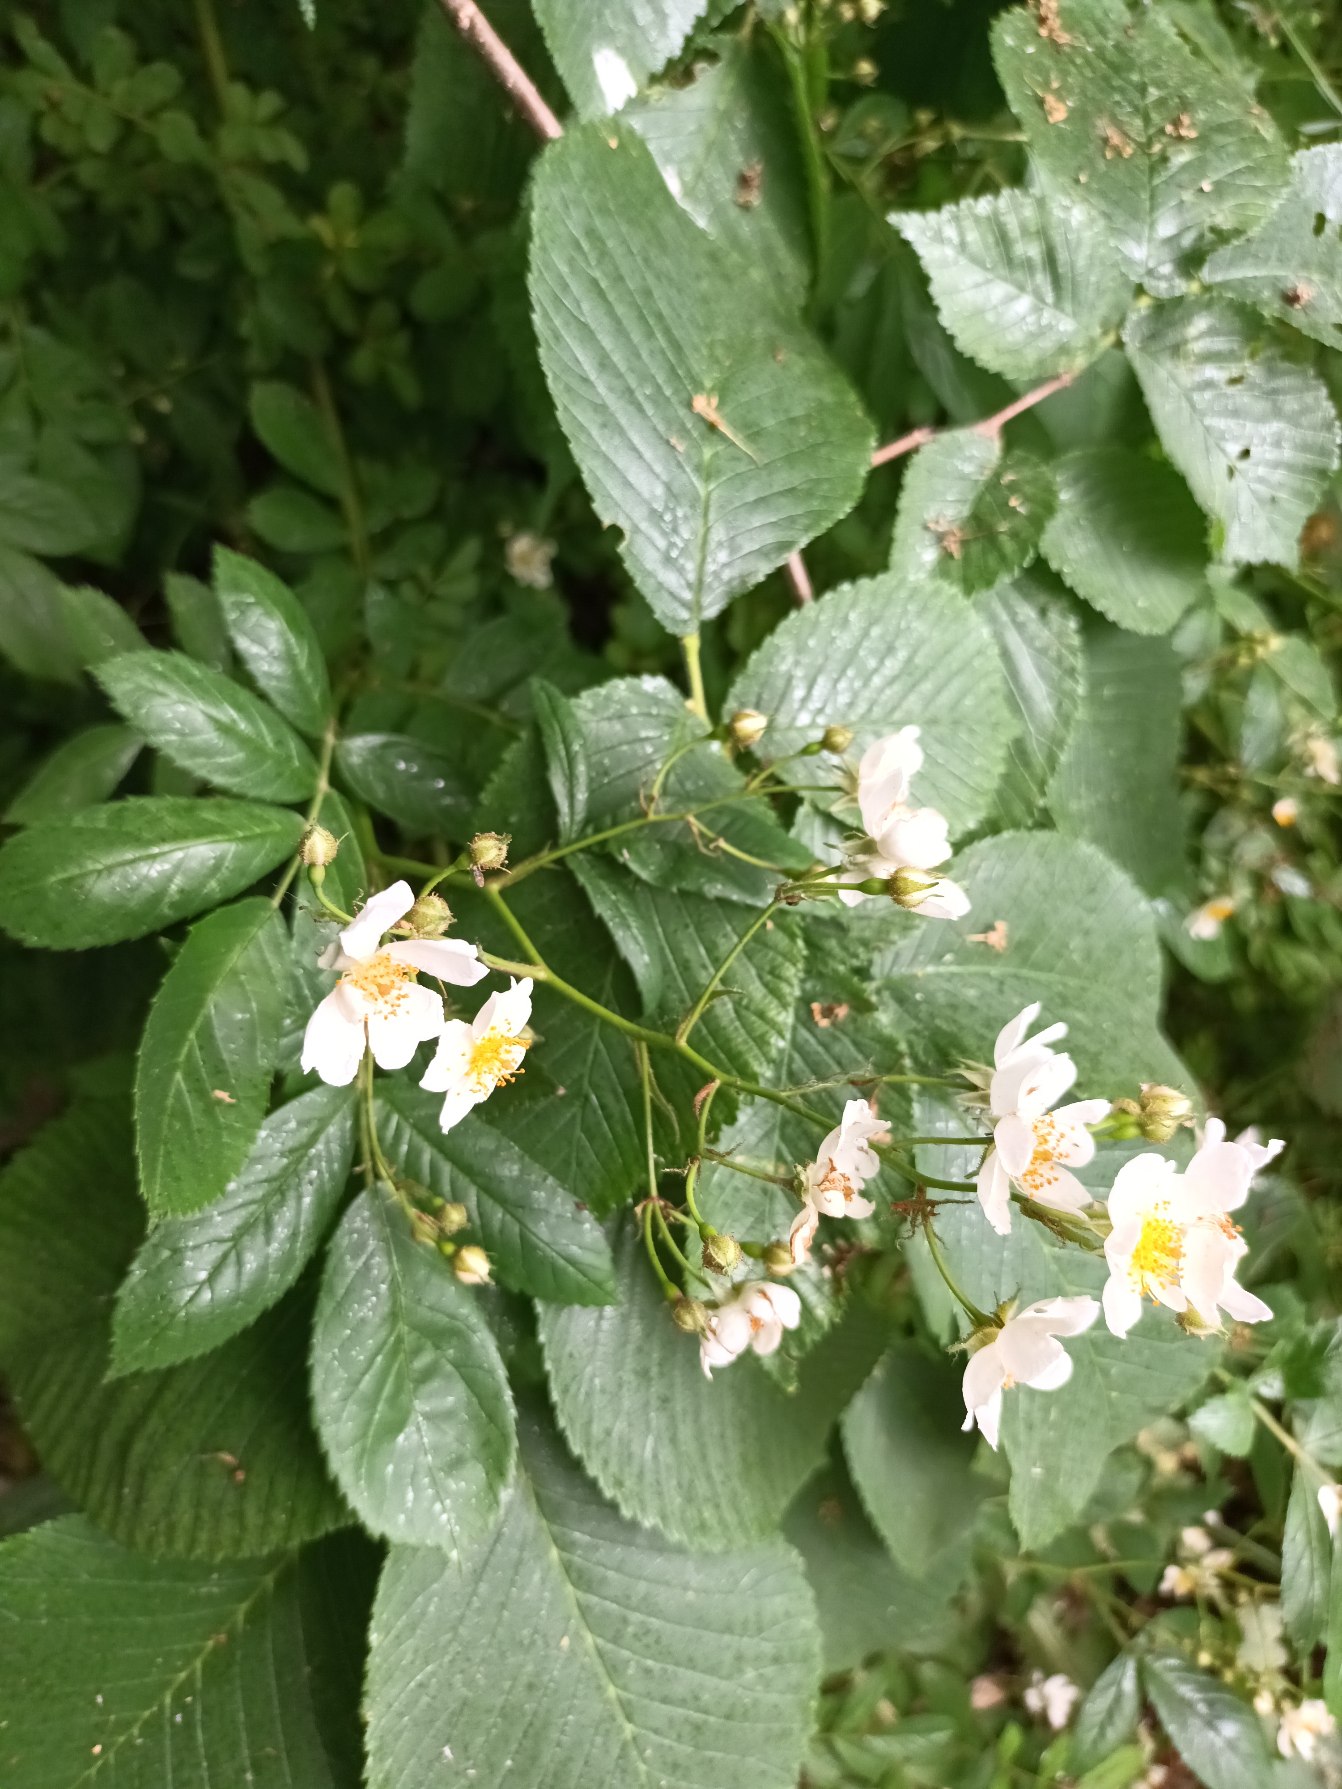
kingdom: Plantae
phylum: Tracheophyta
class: Magnoliopsida
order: Rosales
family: Rosaceae
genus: Rosa
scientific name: Rosa multiflora
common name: Mangeblomstret rose
